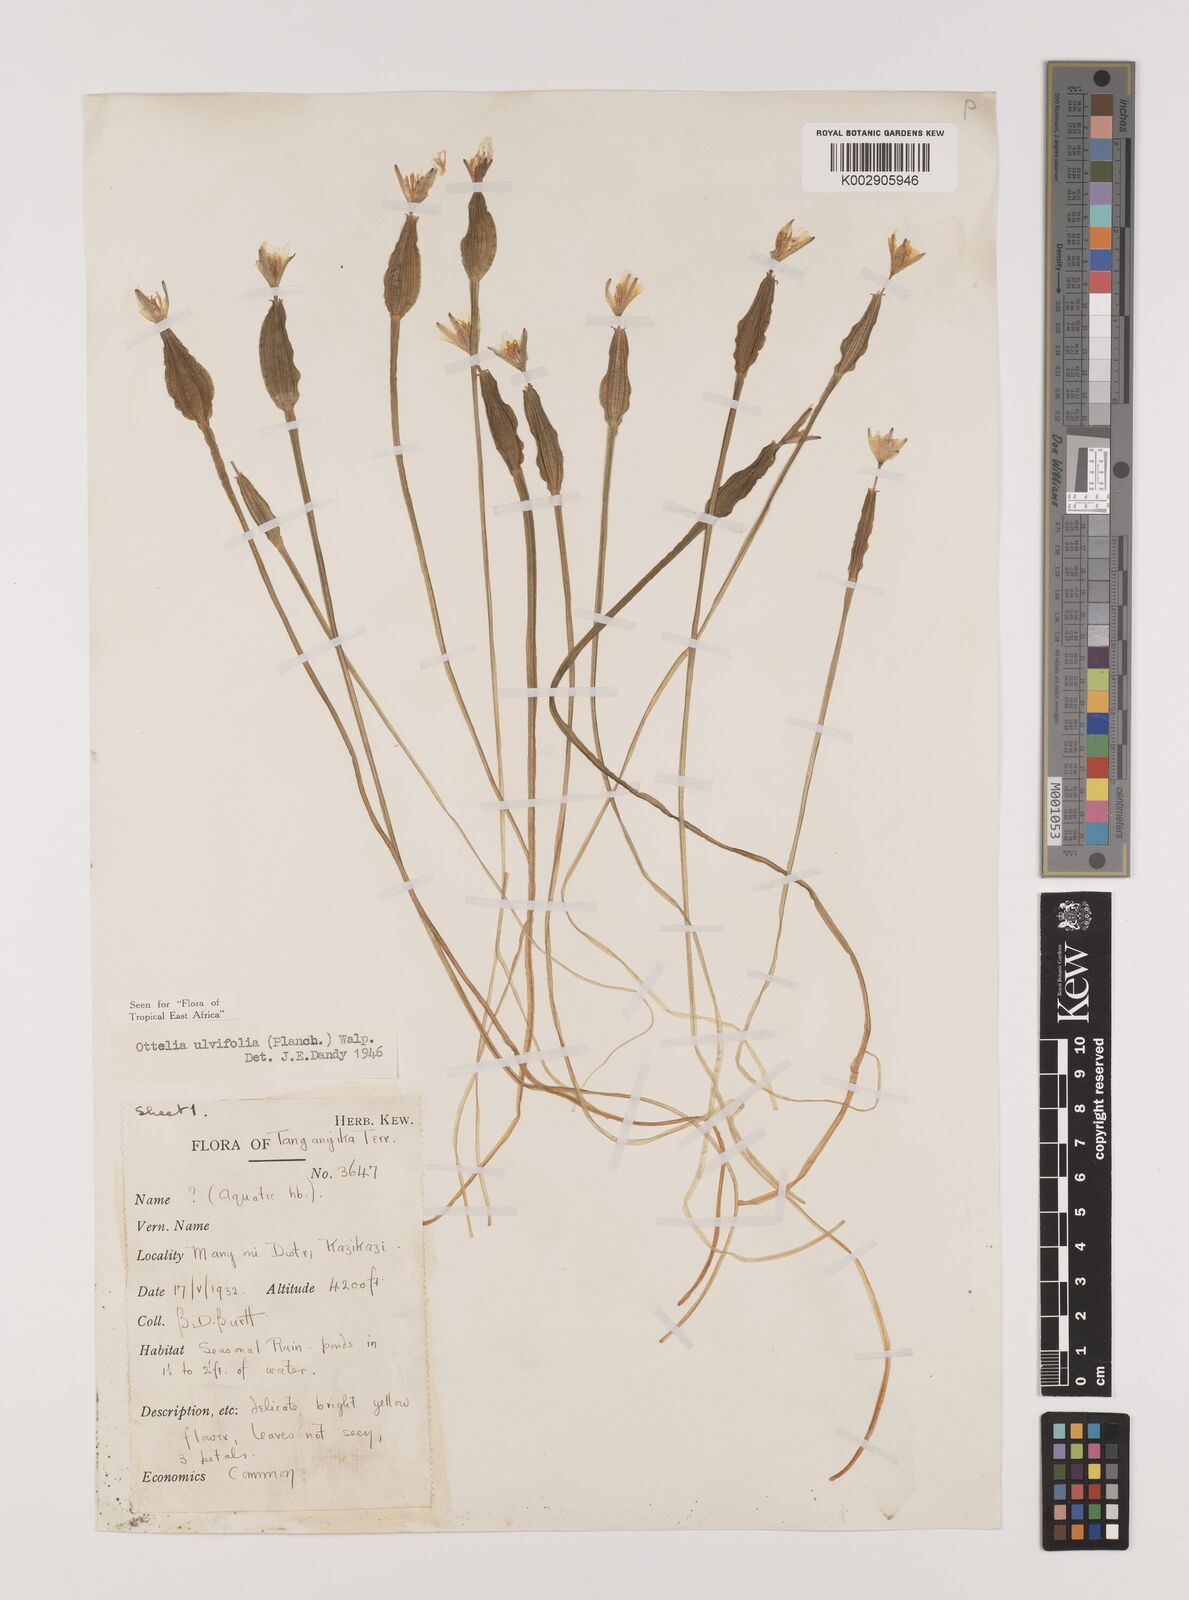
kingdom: Plantae
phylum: Tracheophyta
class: Liliopsida
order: Alismatales
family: Hydrocharitaceae
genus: Ottelia
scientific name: Ottelia ulvifolia
